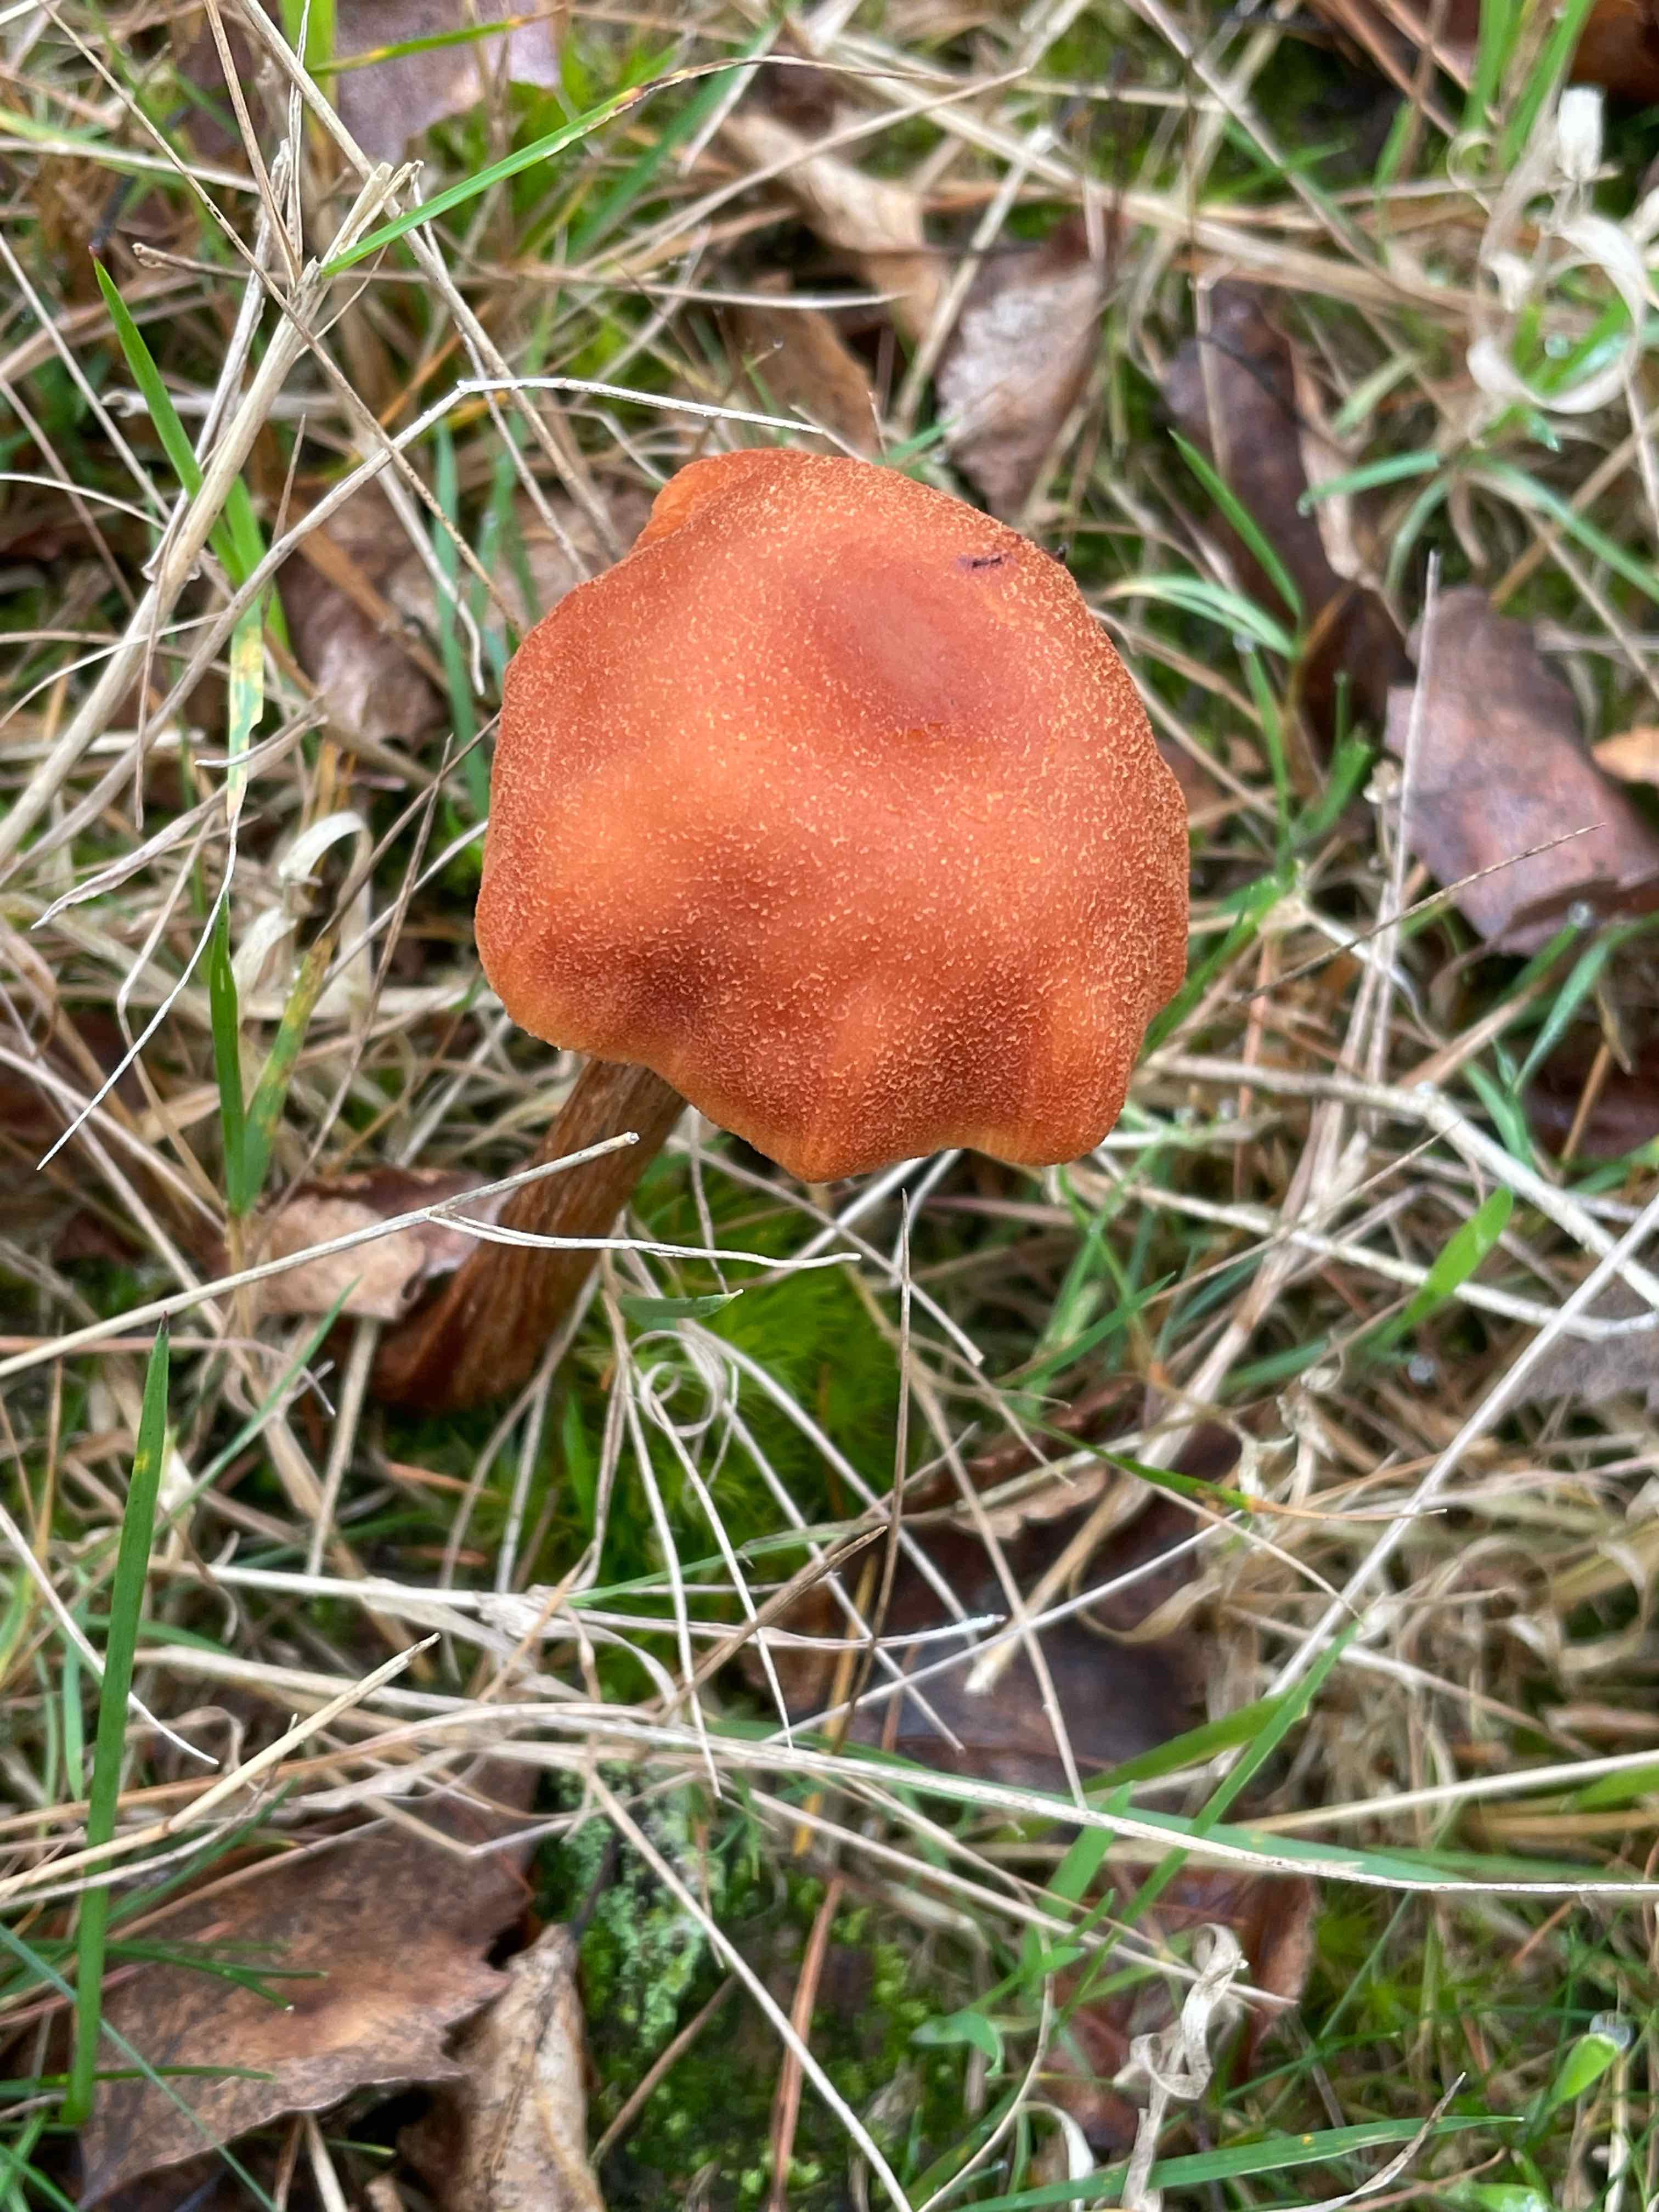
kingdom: Fungi
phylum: Basidiomycota
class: Agaricomycetes
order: Agaricales
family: Hydnangiaceae
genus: Laccaria
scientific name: Laccaria proxima
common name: stor ametysthat
